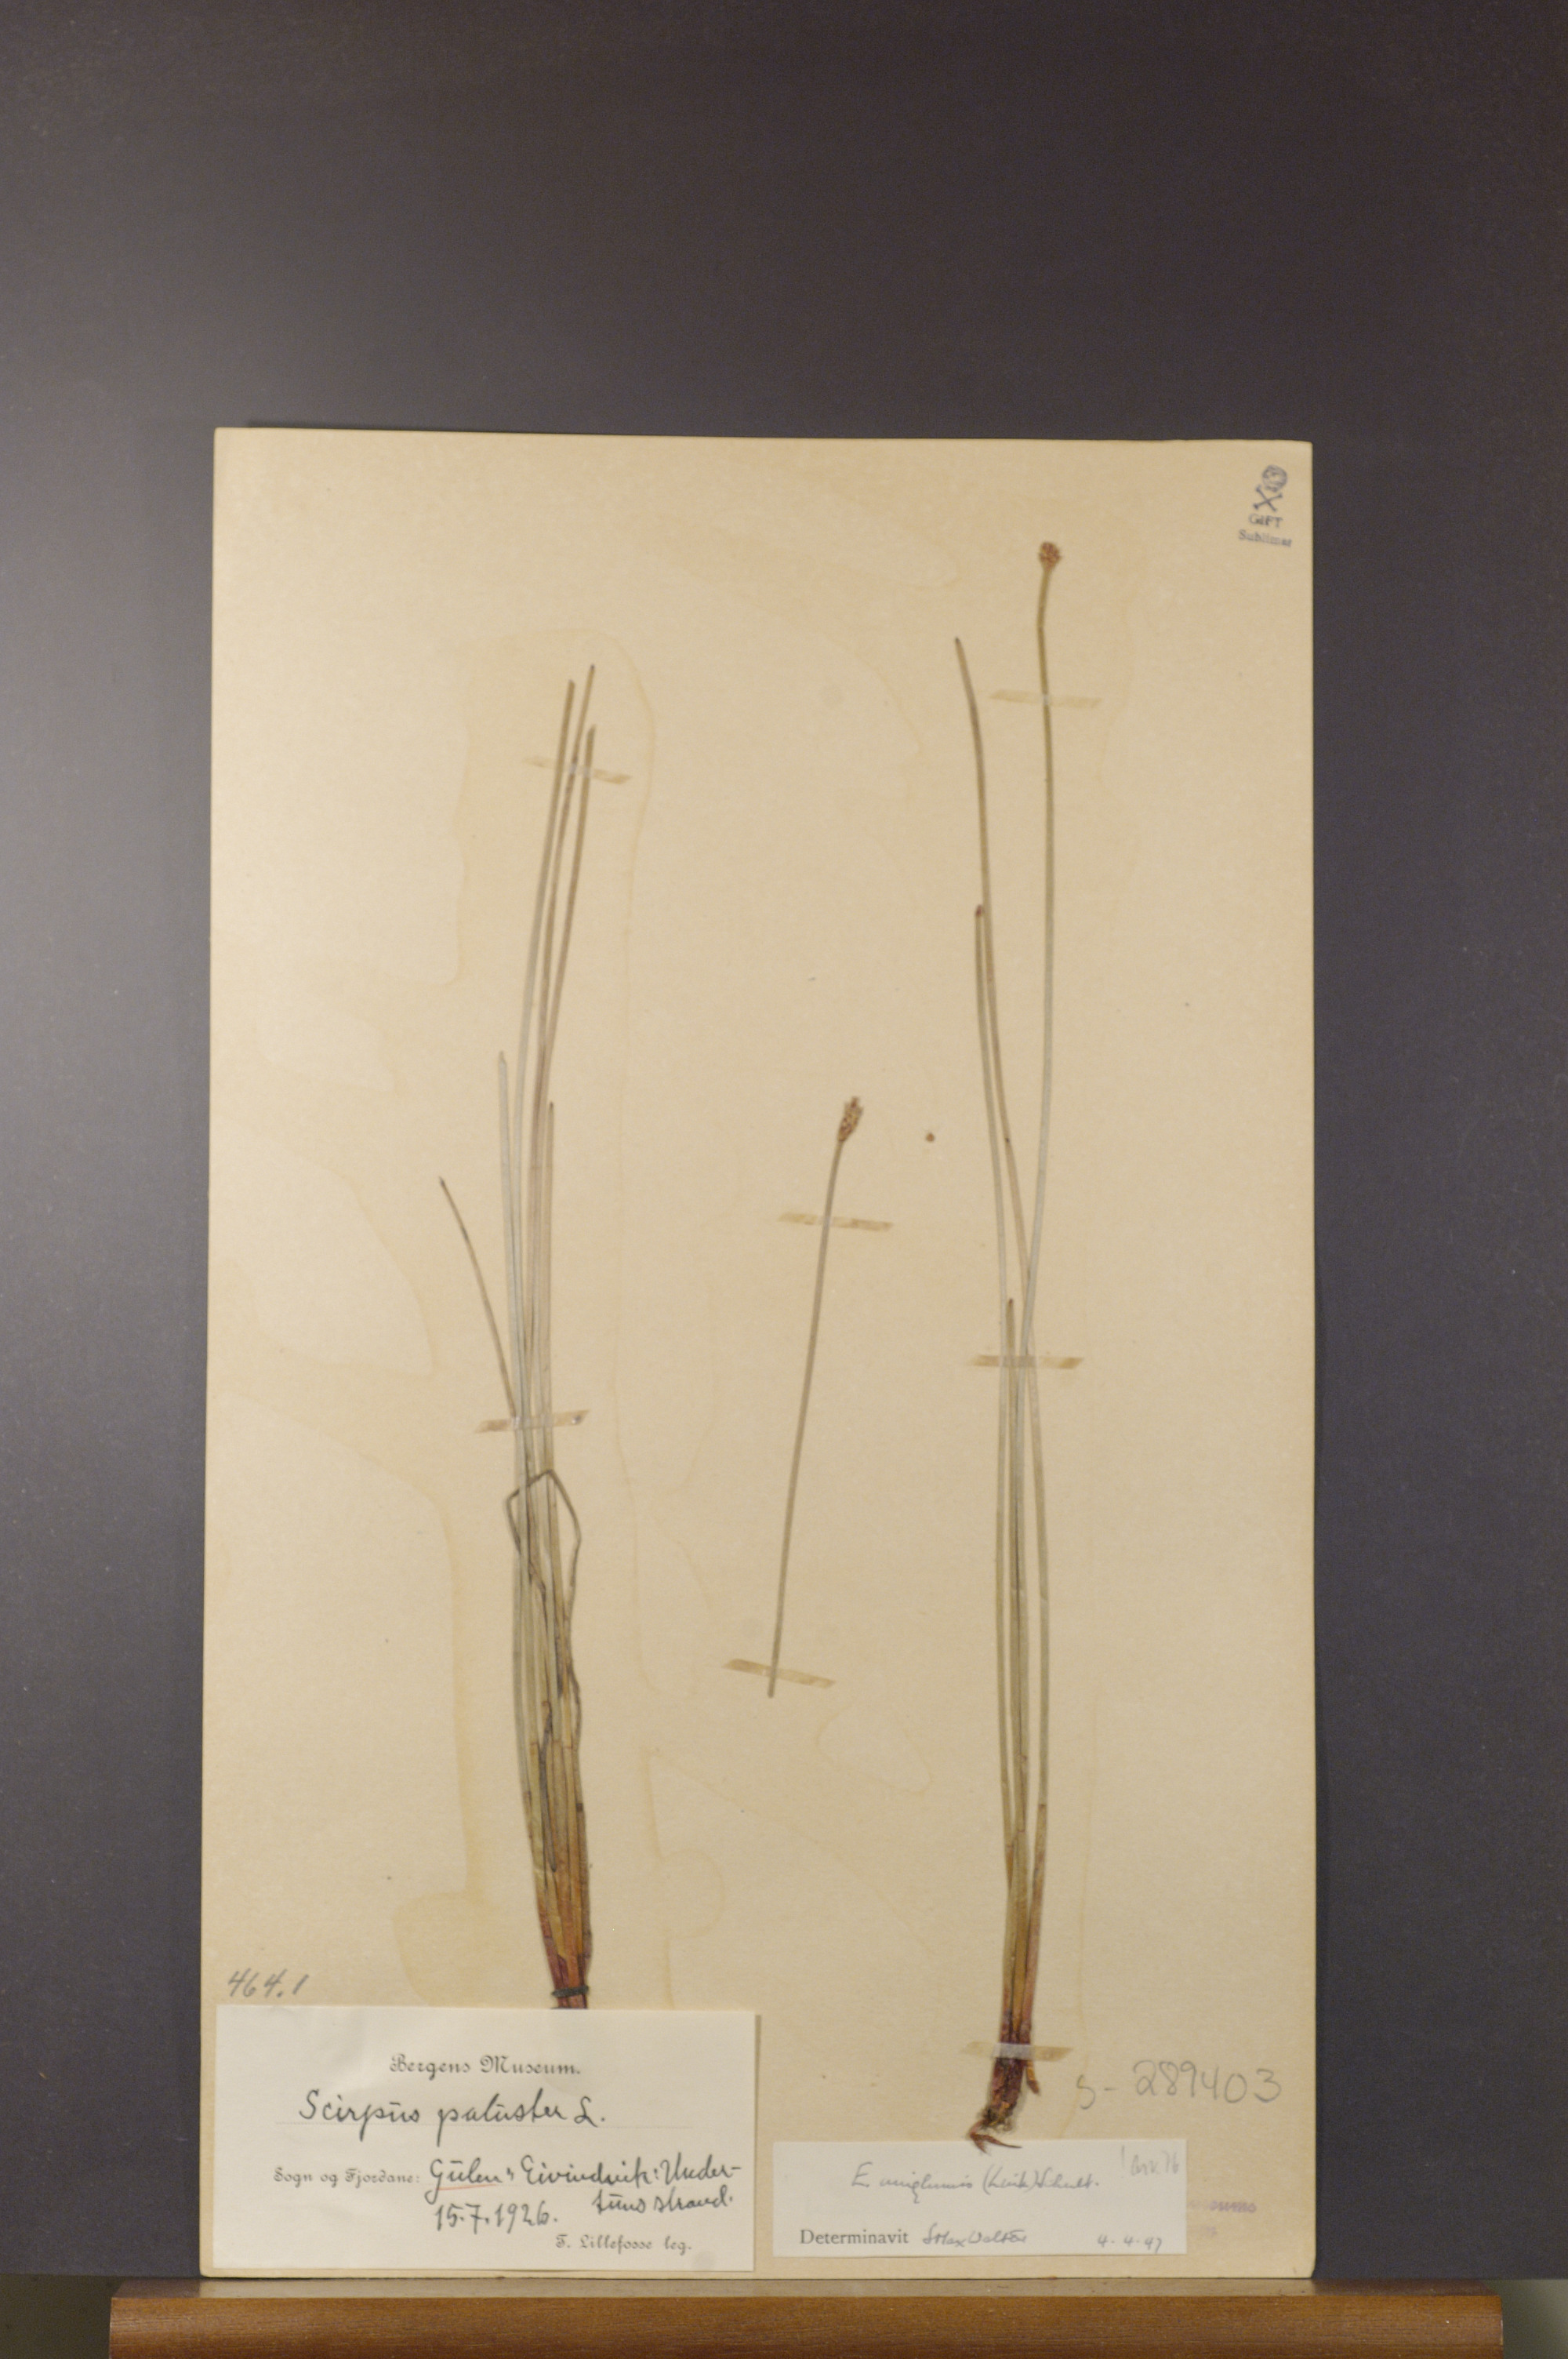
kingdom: Plantae
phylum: Tracheophyta
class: Liliopsida
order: Poales
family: Cyperaceae
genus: Eleocharis
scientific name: Eleocharis uniglumis
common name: Slender spike-rush
